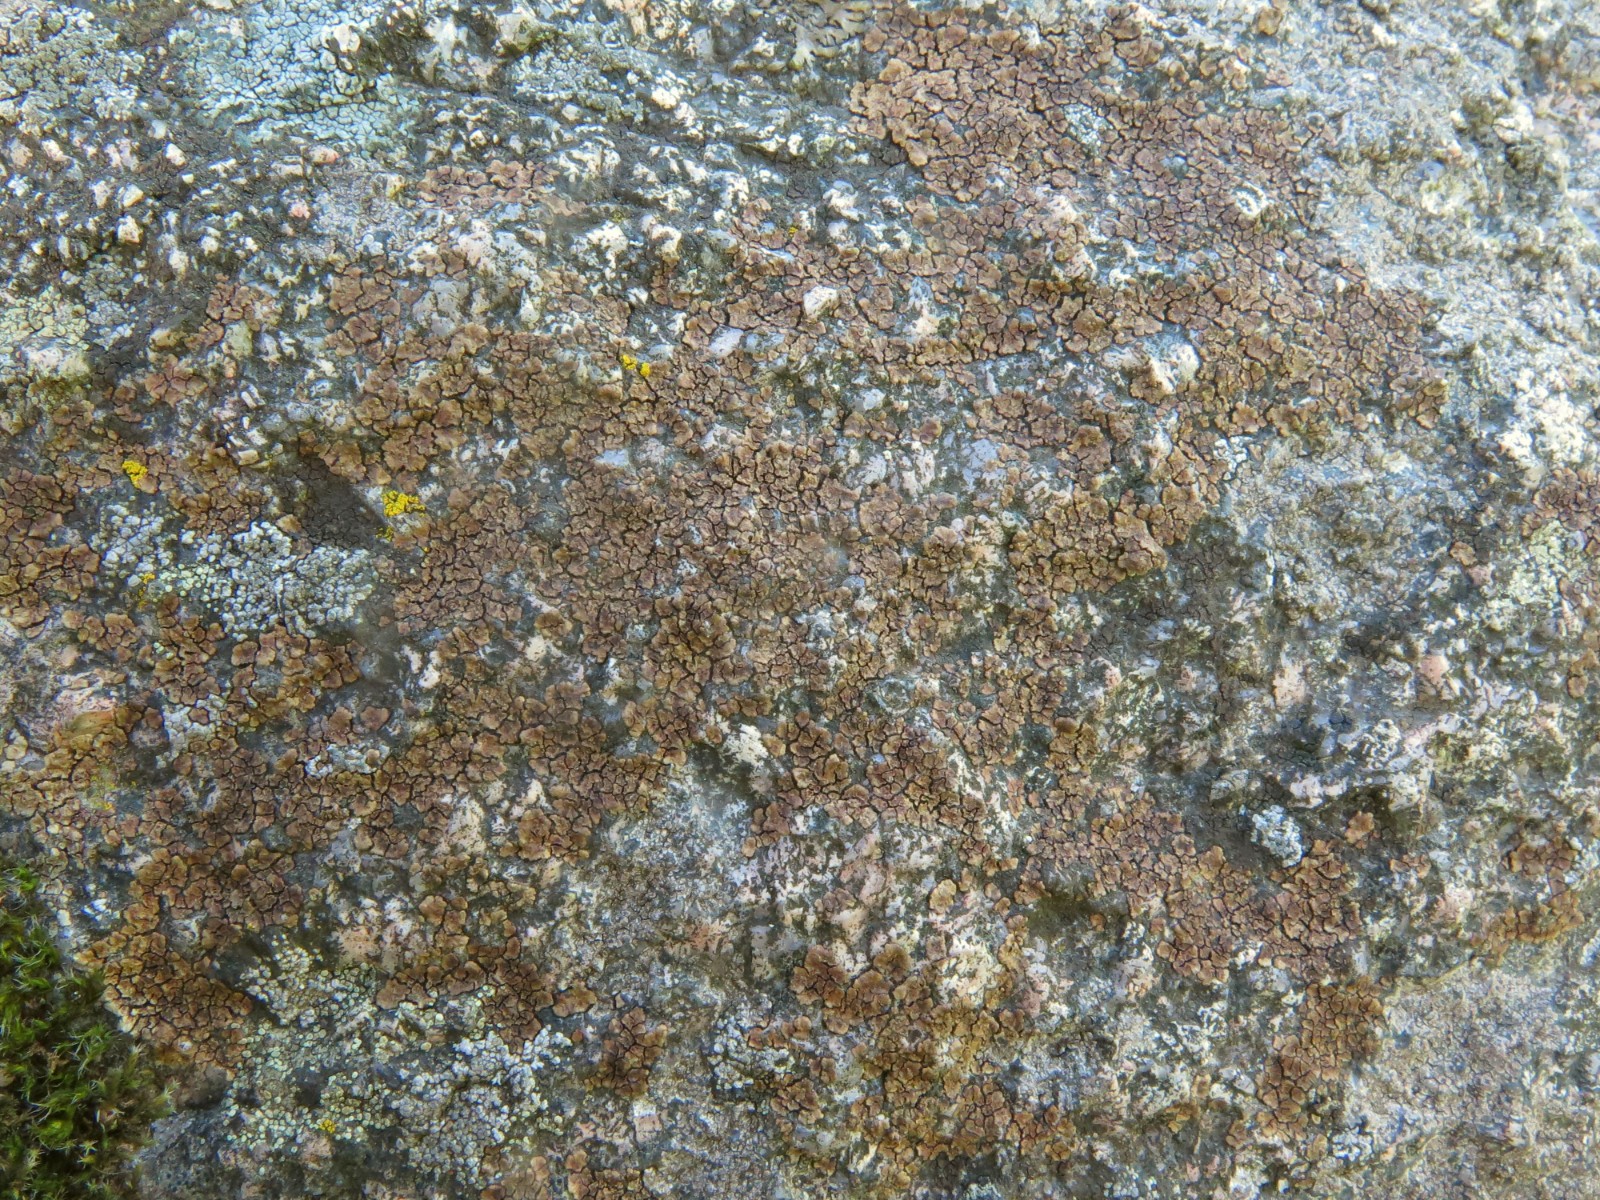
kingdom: Fungi
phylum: Ascomycota
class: Lecanoromycetes
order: Acarosporales
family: Acarosporaceae
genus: Acarospora
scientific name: Acarospora fuscata
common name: brun småsporelav
